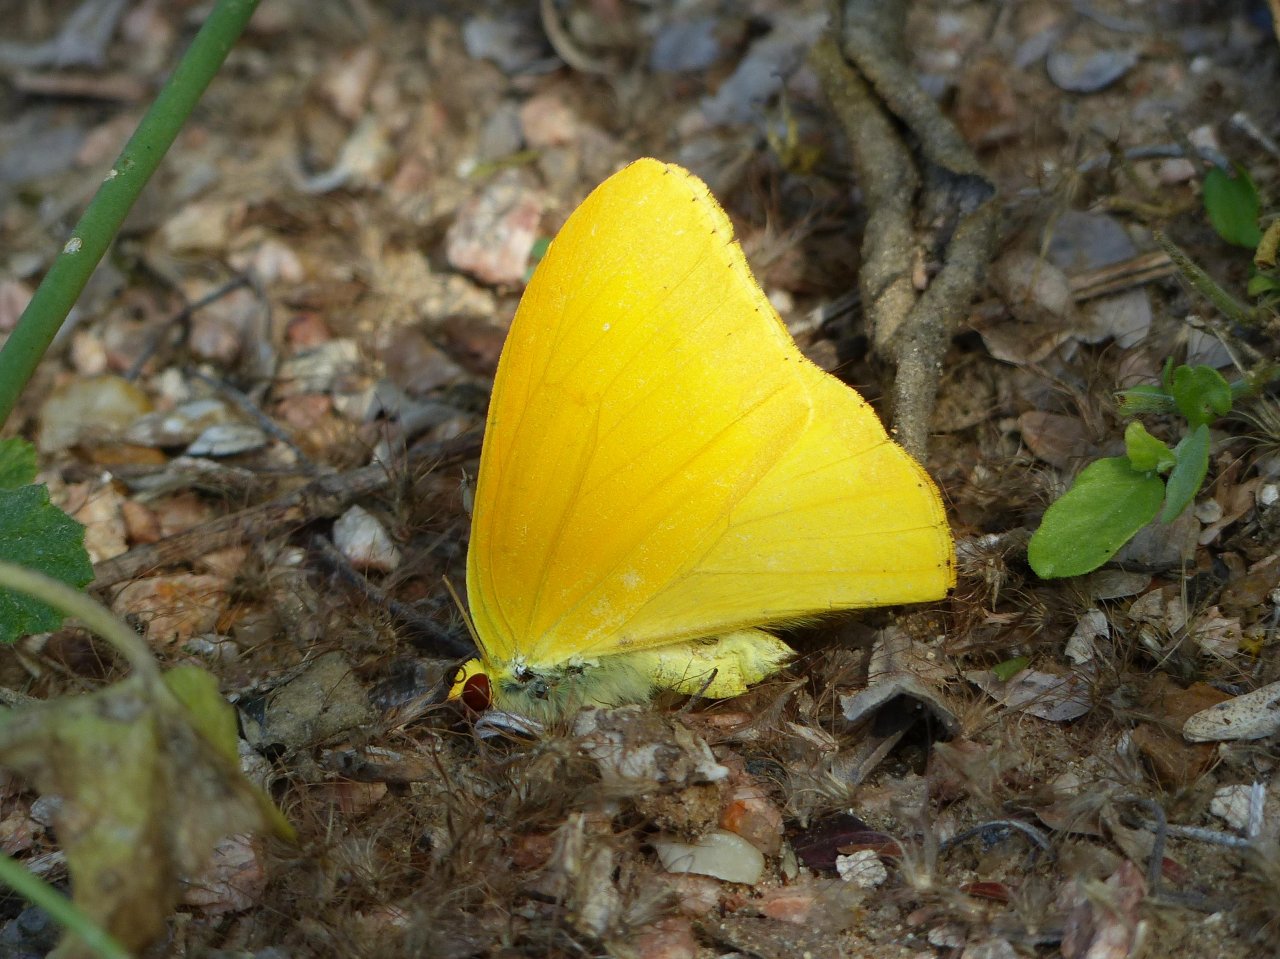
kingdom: Animalia
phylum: Arthropoda
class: Insecta
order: Lepidoptera
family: Pieridae
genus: Phoebis
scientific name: Phoebis agarithe
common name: Large Orange Sulphur
